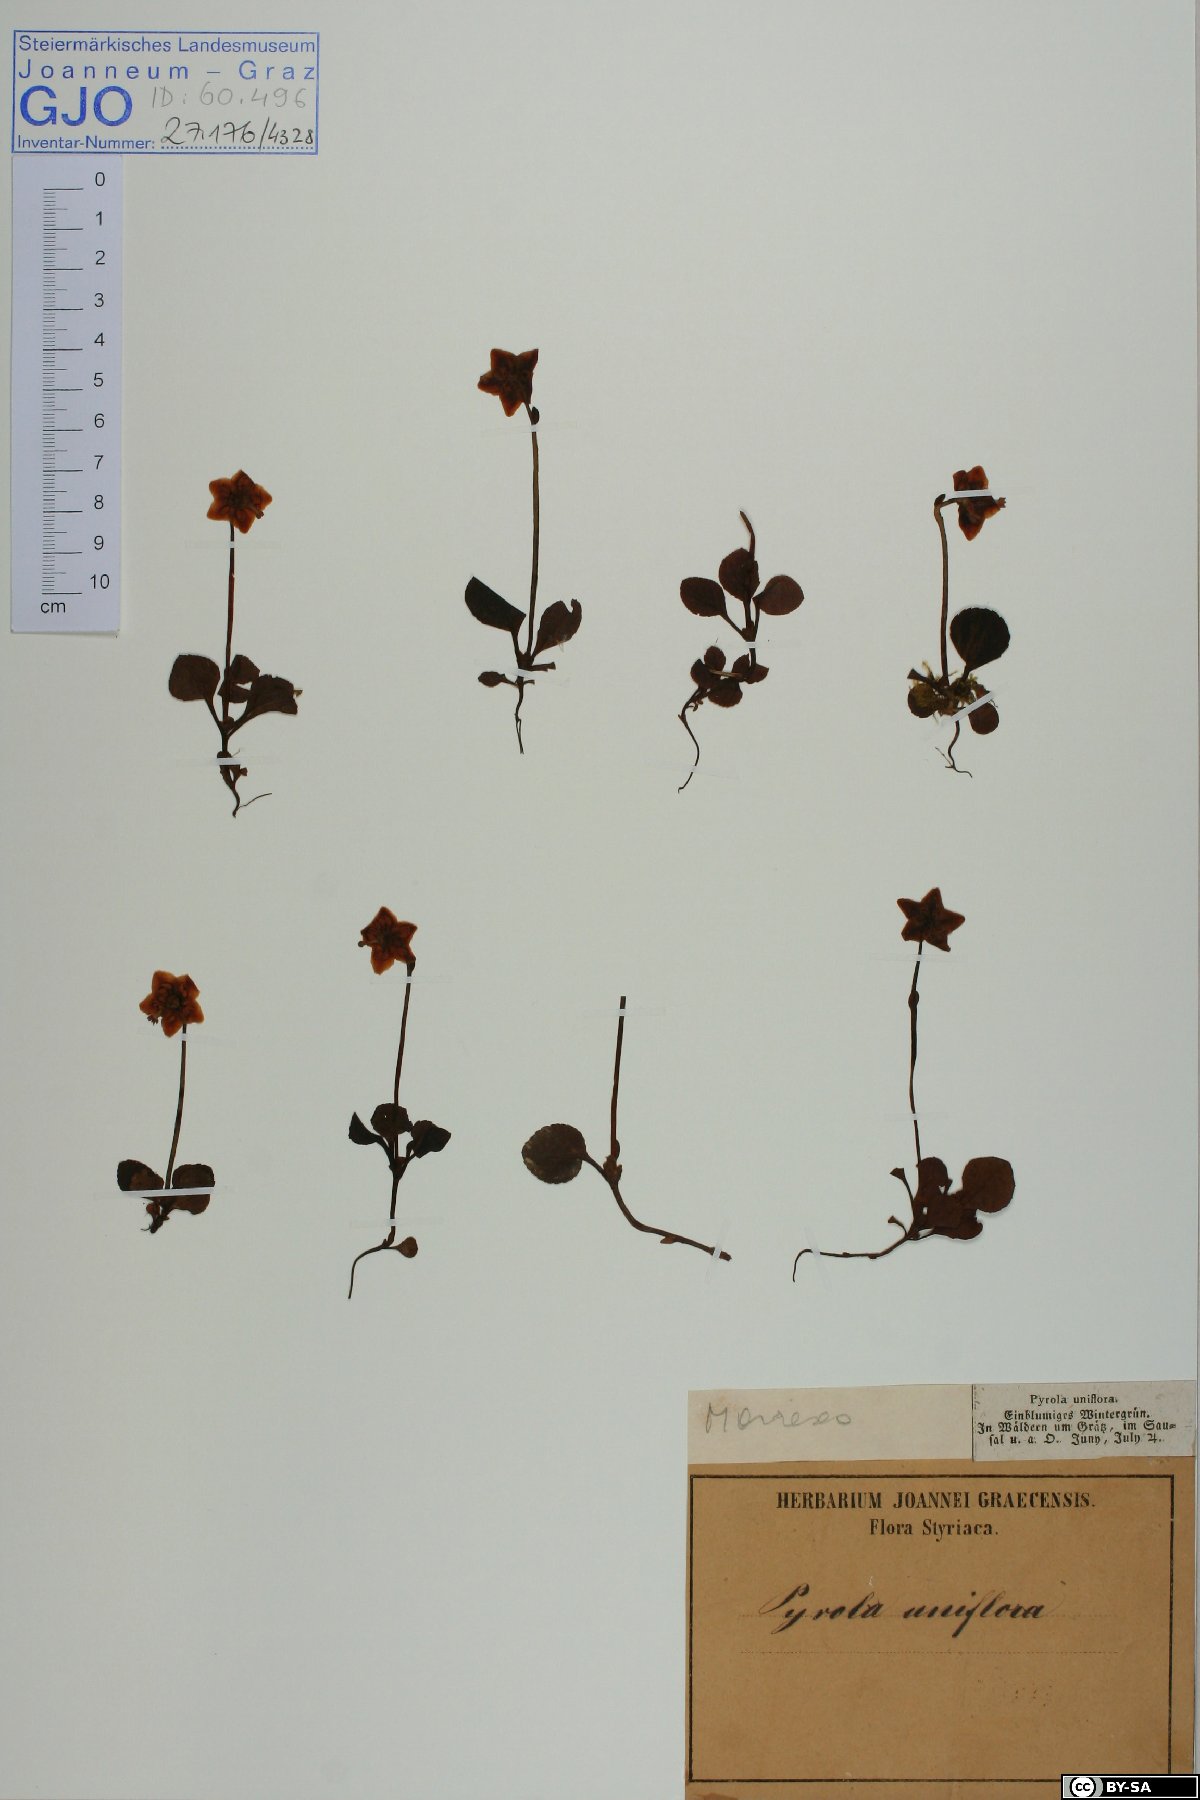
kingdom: Plantae
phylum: Tracheophyta
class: Magnoliopsida
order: Ericales
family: Ericaceae
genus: Moneses
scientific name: Moneses uniflora
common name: One-flowered wintergreen
